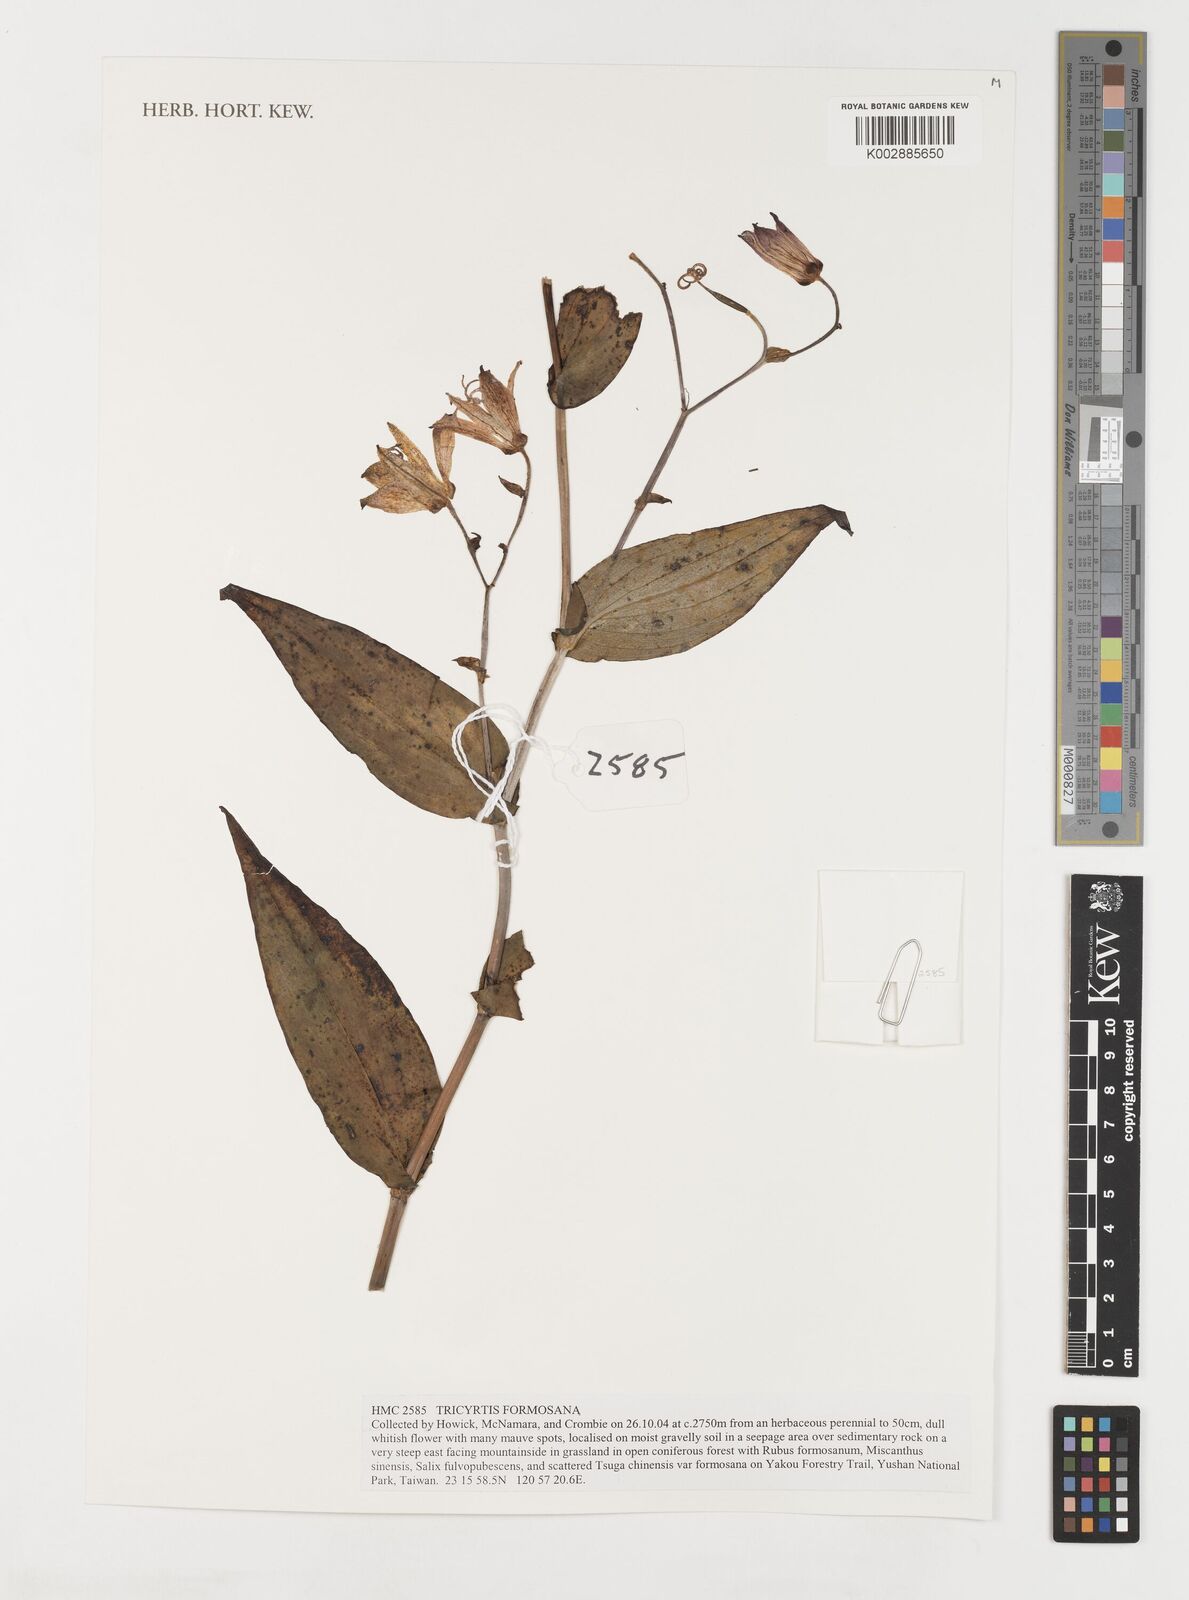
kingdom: Plantae
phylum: Tracheophyta
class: Liliopsida
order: Liliales
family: Liliaceae
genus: Tricyrtis
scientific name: Tricyrtis formosana
